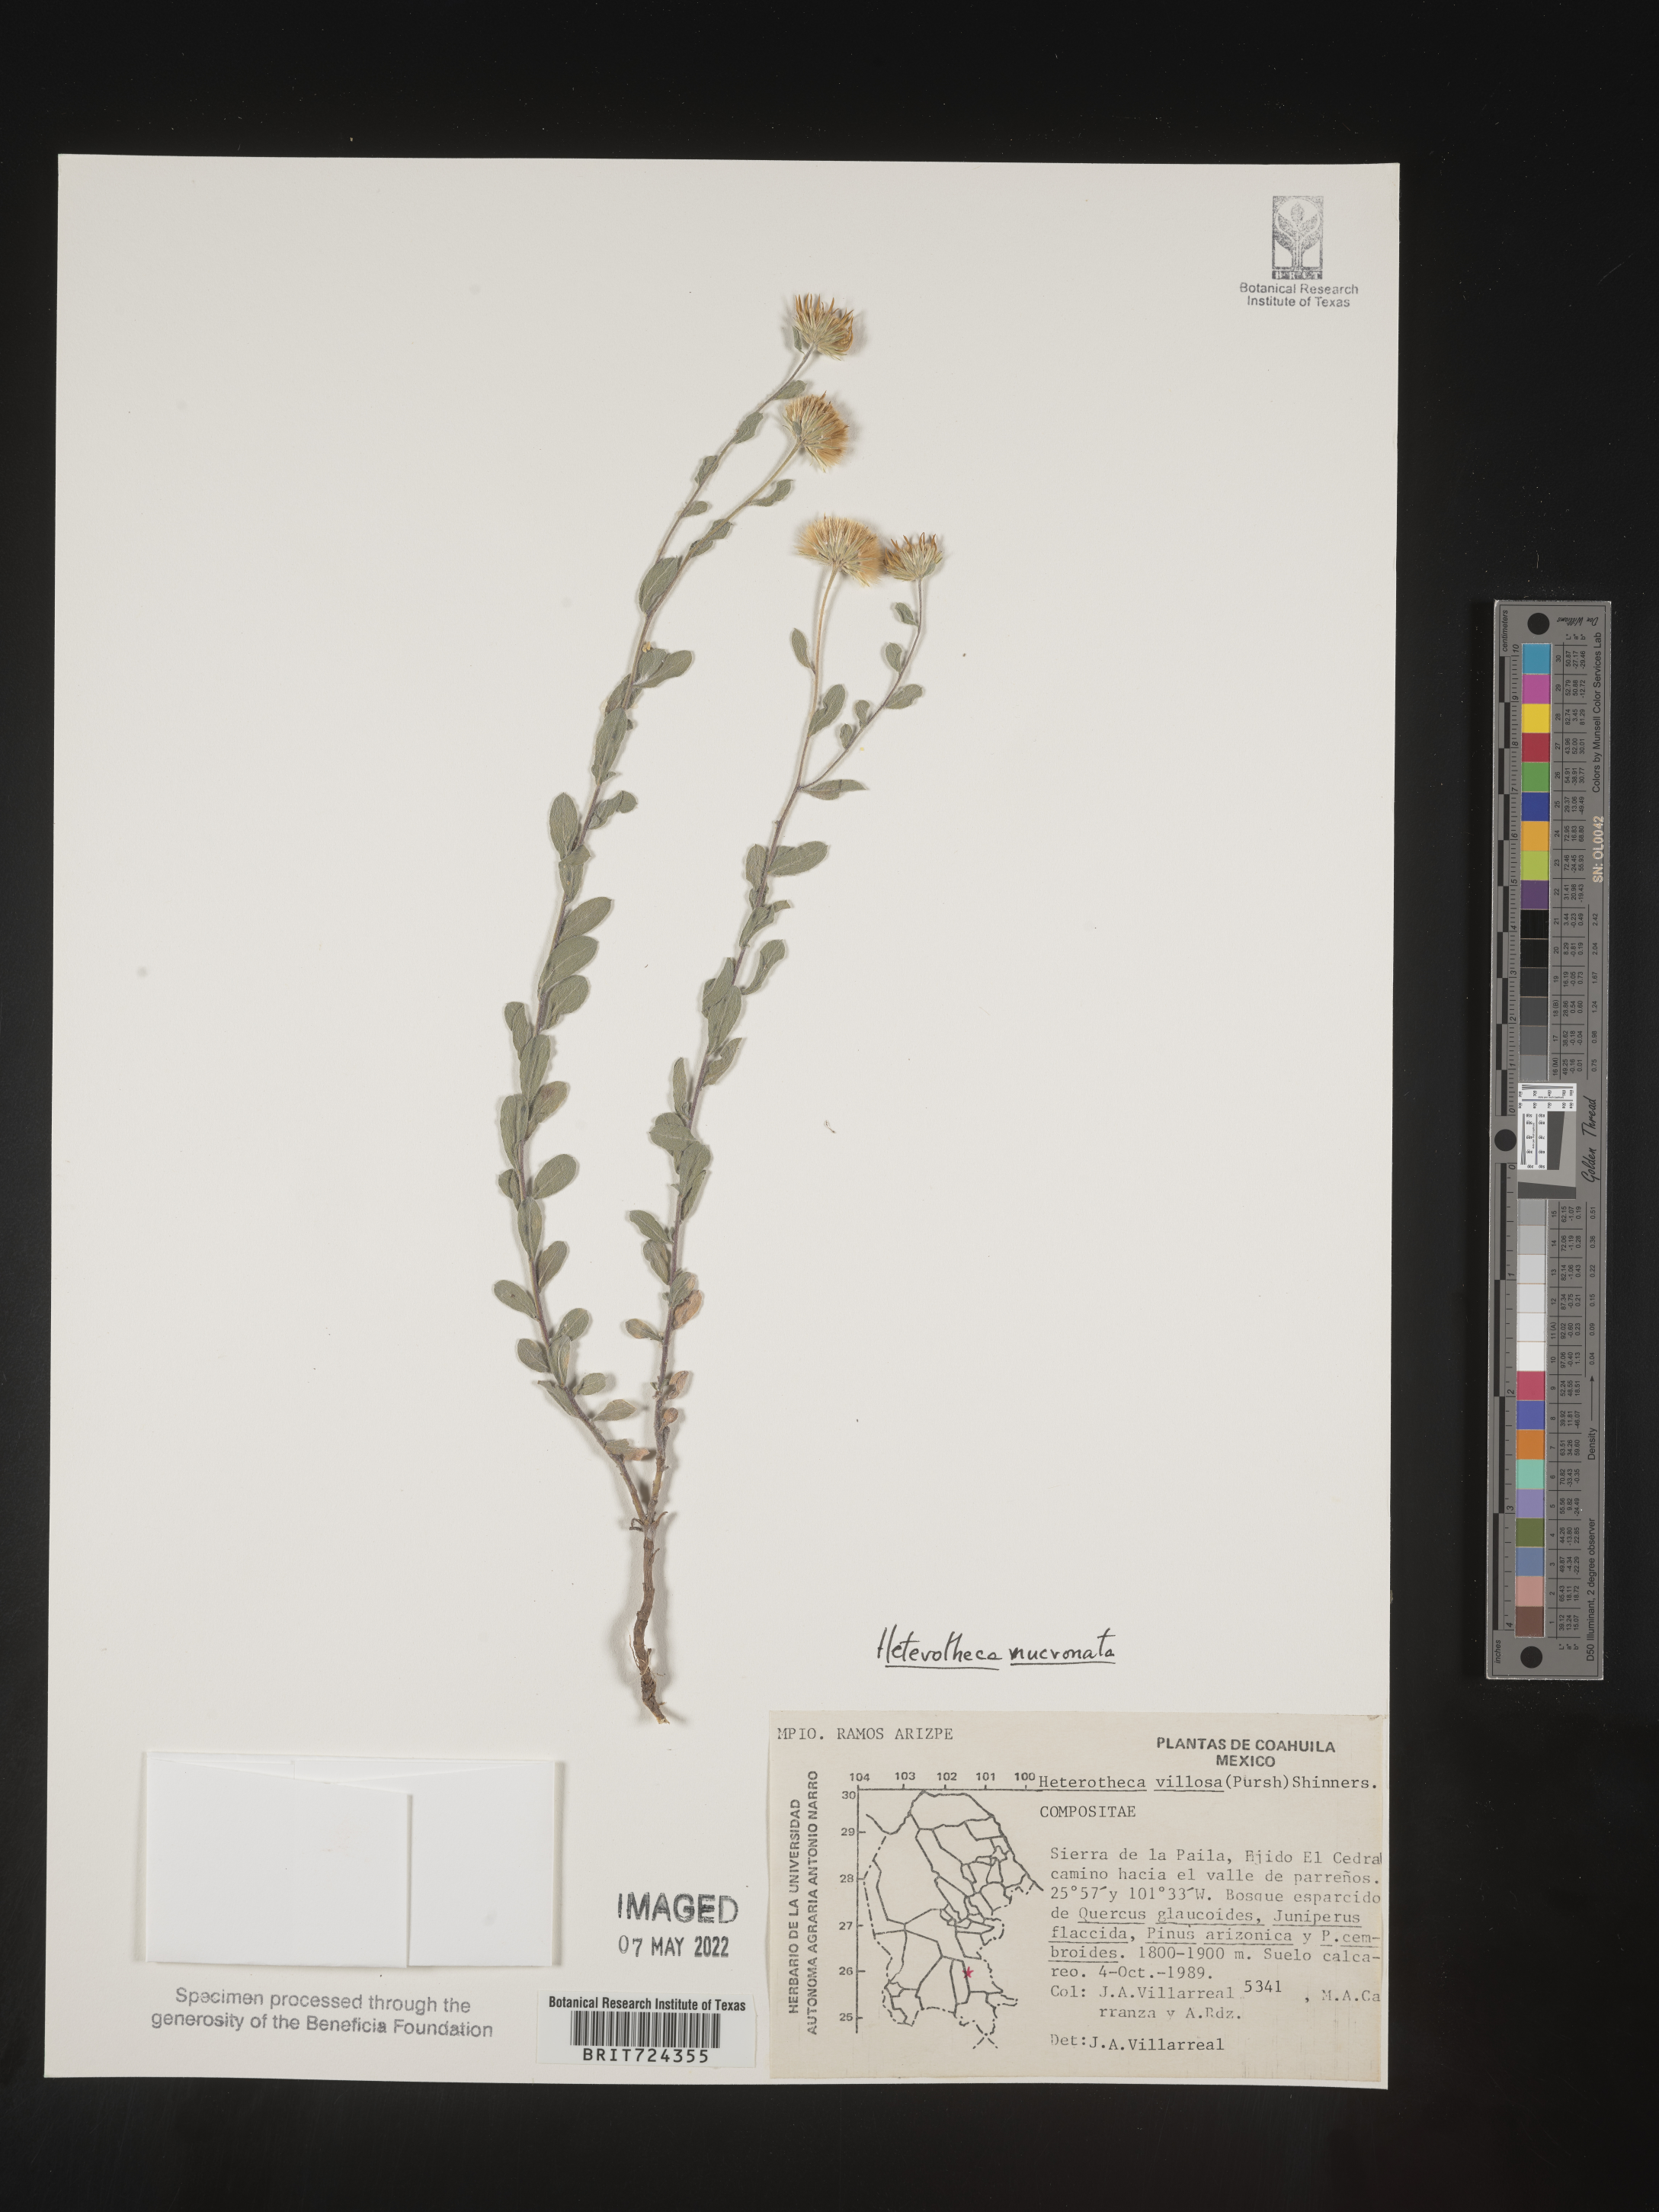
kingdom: Plantae
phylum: Tracheophyta
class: Magnoliopsida
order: Asterales
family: Asteraceae
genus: Heterotheca
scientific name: Heterotheca
